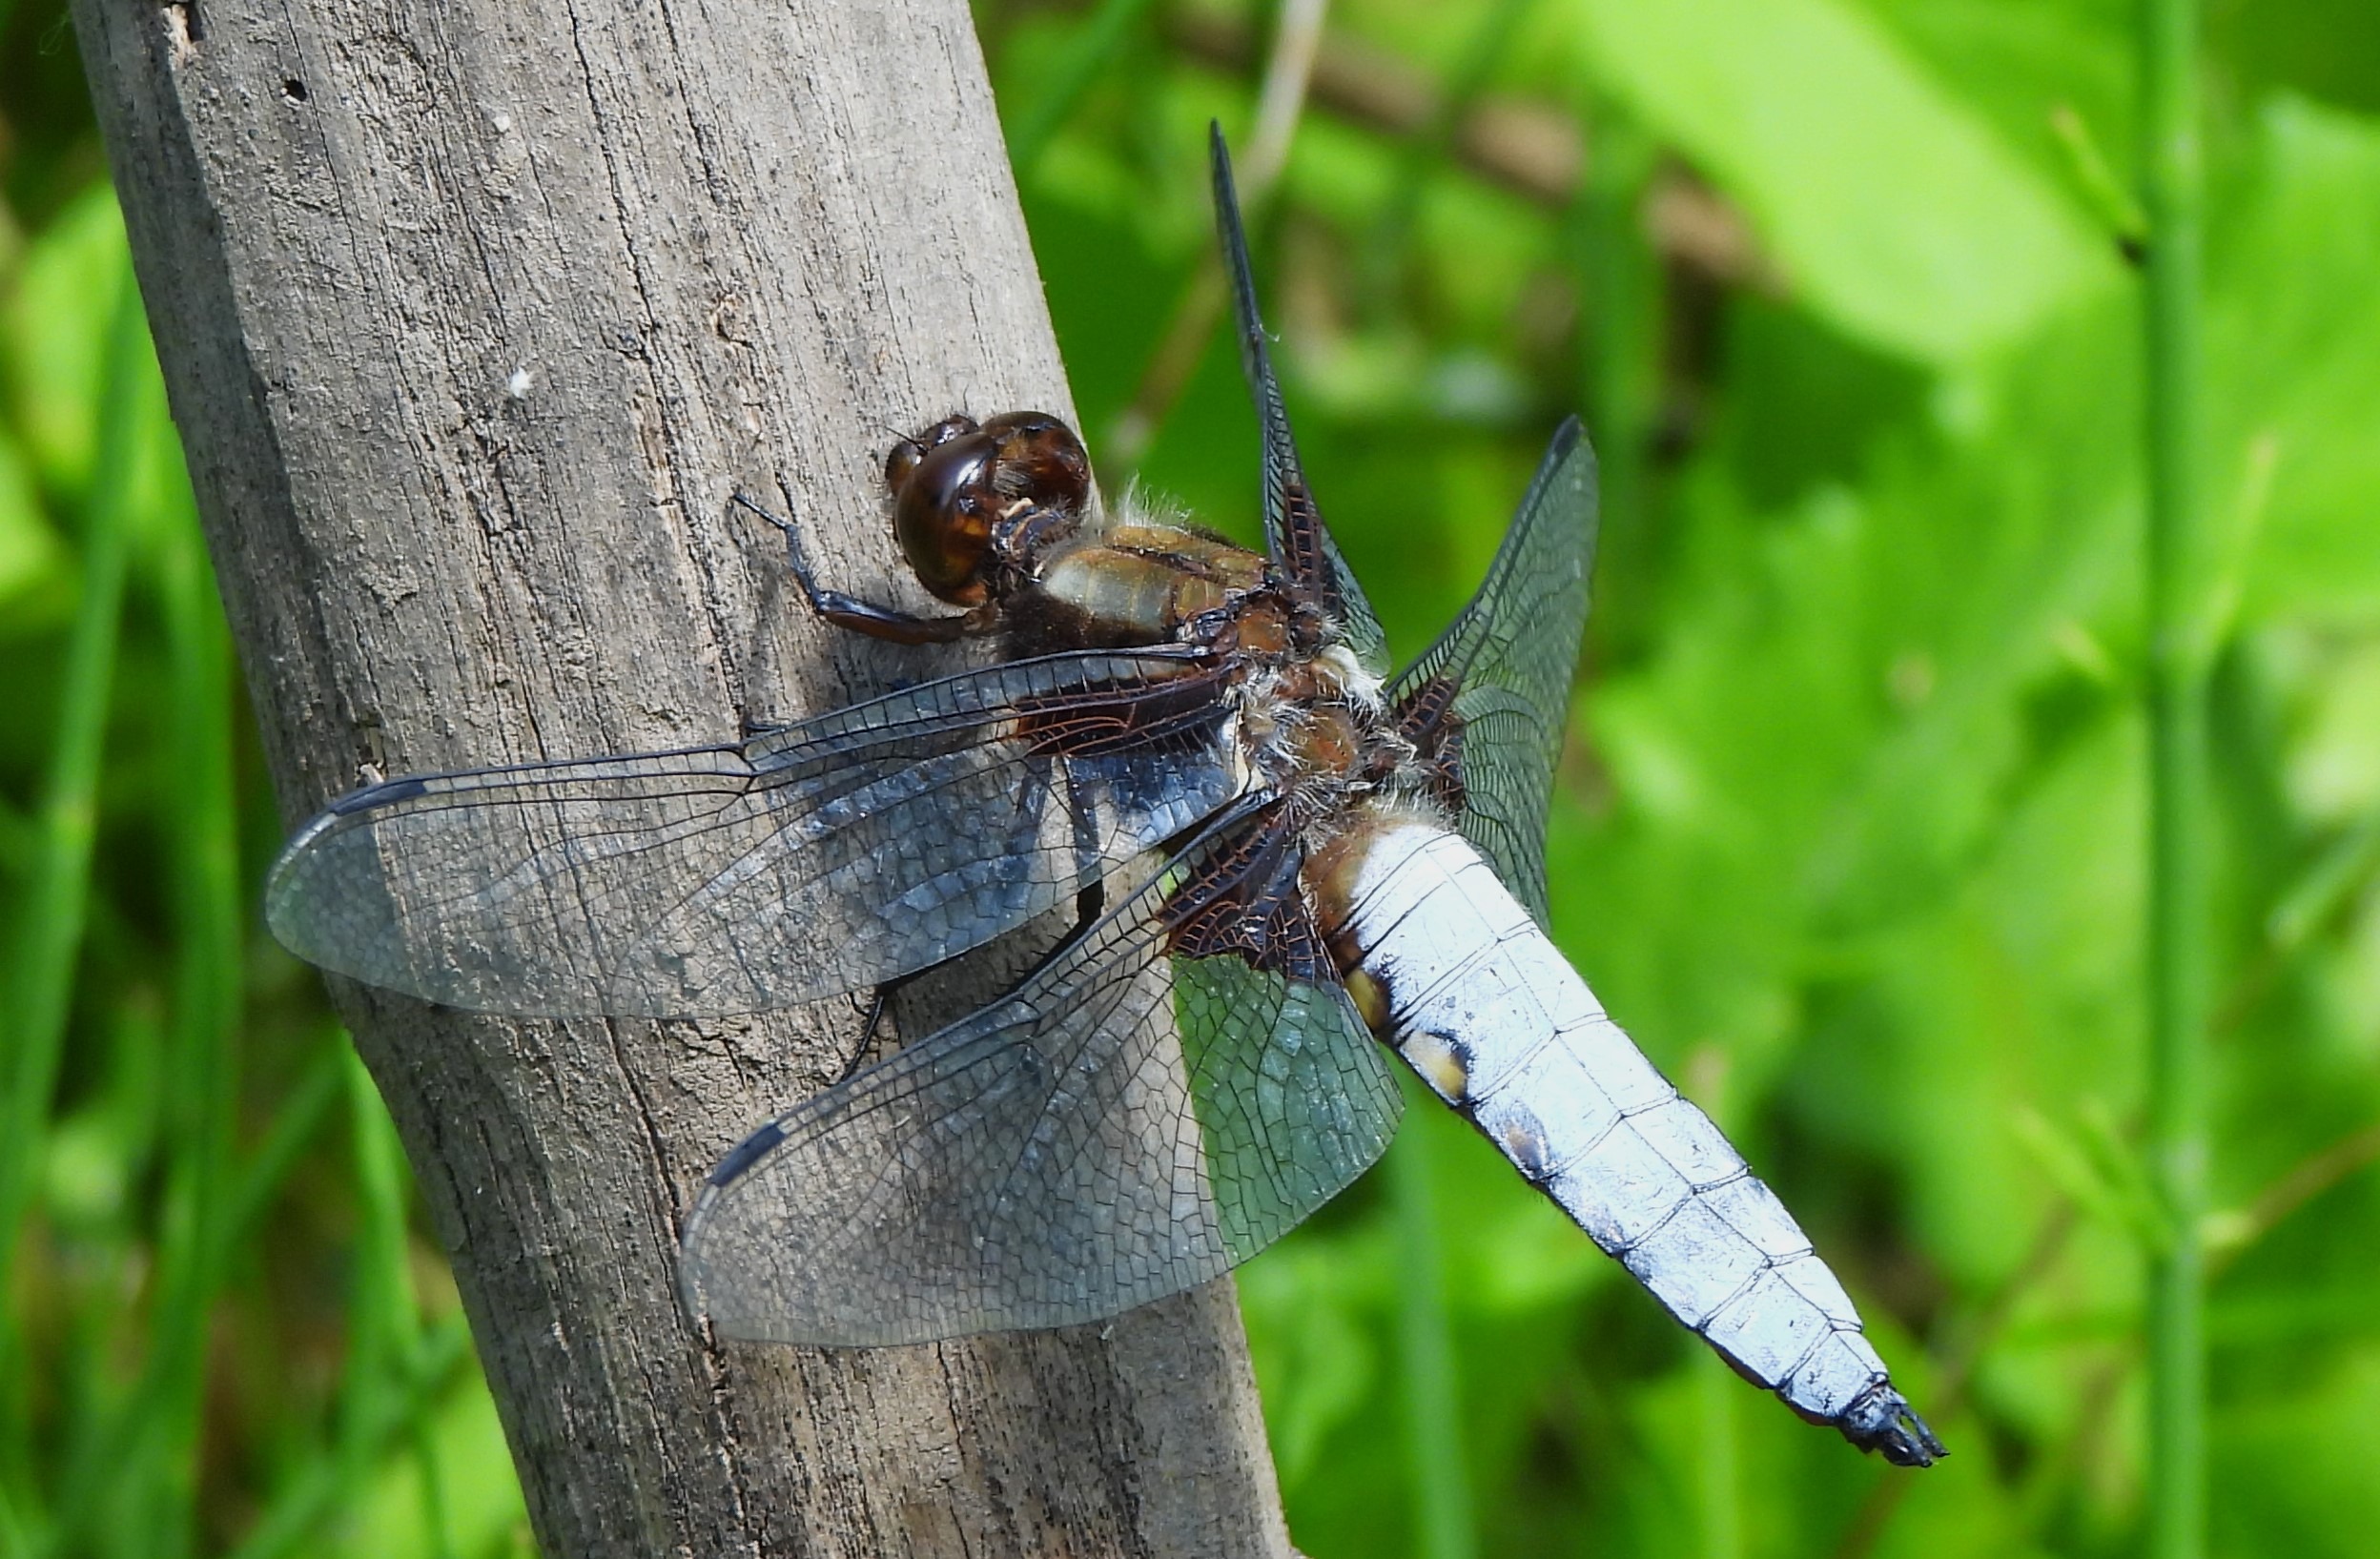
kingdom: Animalia
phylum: Arthropoda
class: Insecta
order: Odonata
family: Libellulidae
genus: Libellula
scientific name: Libellula depressa
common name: Blå libel
